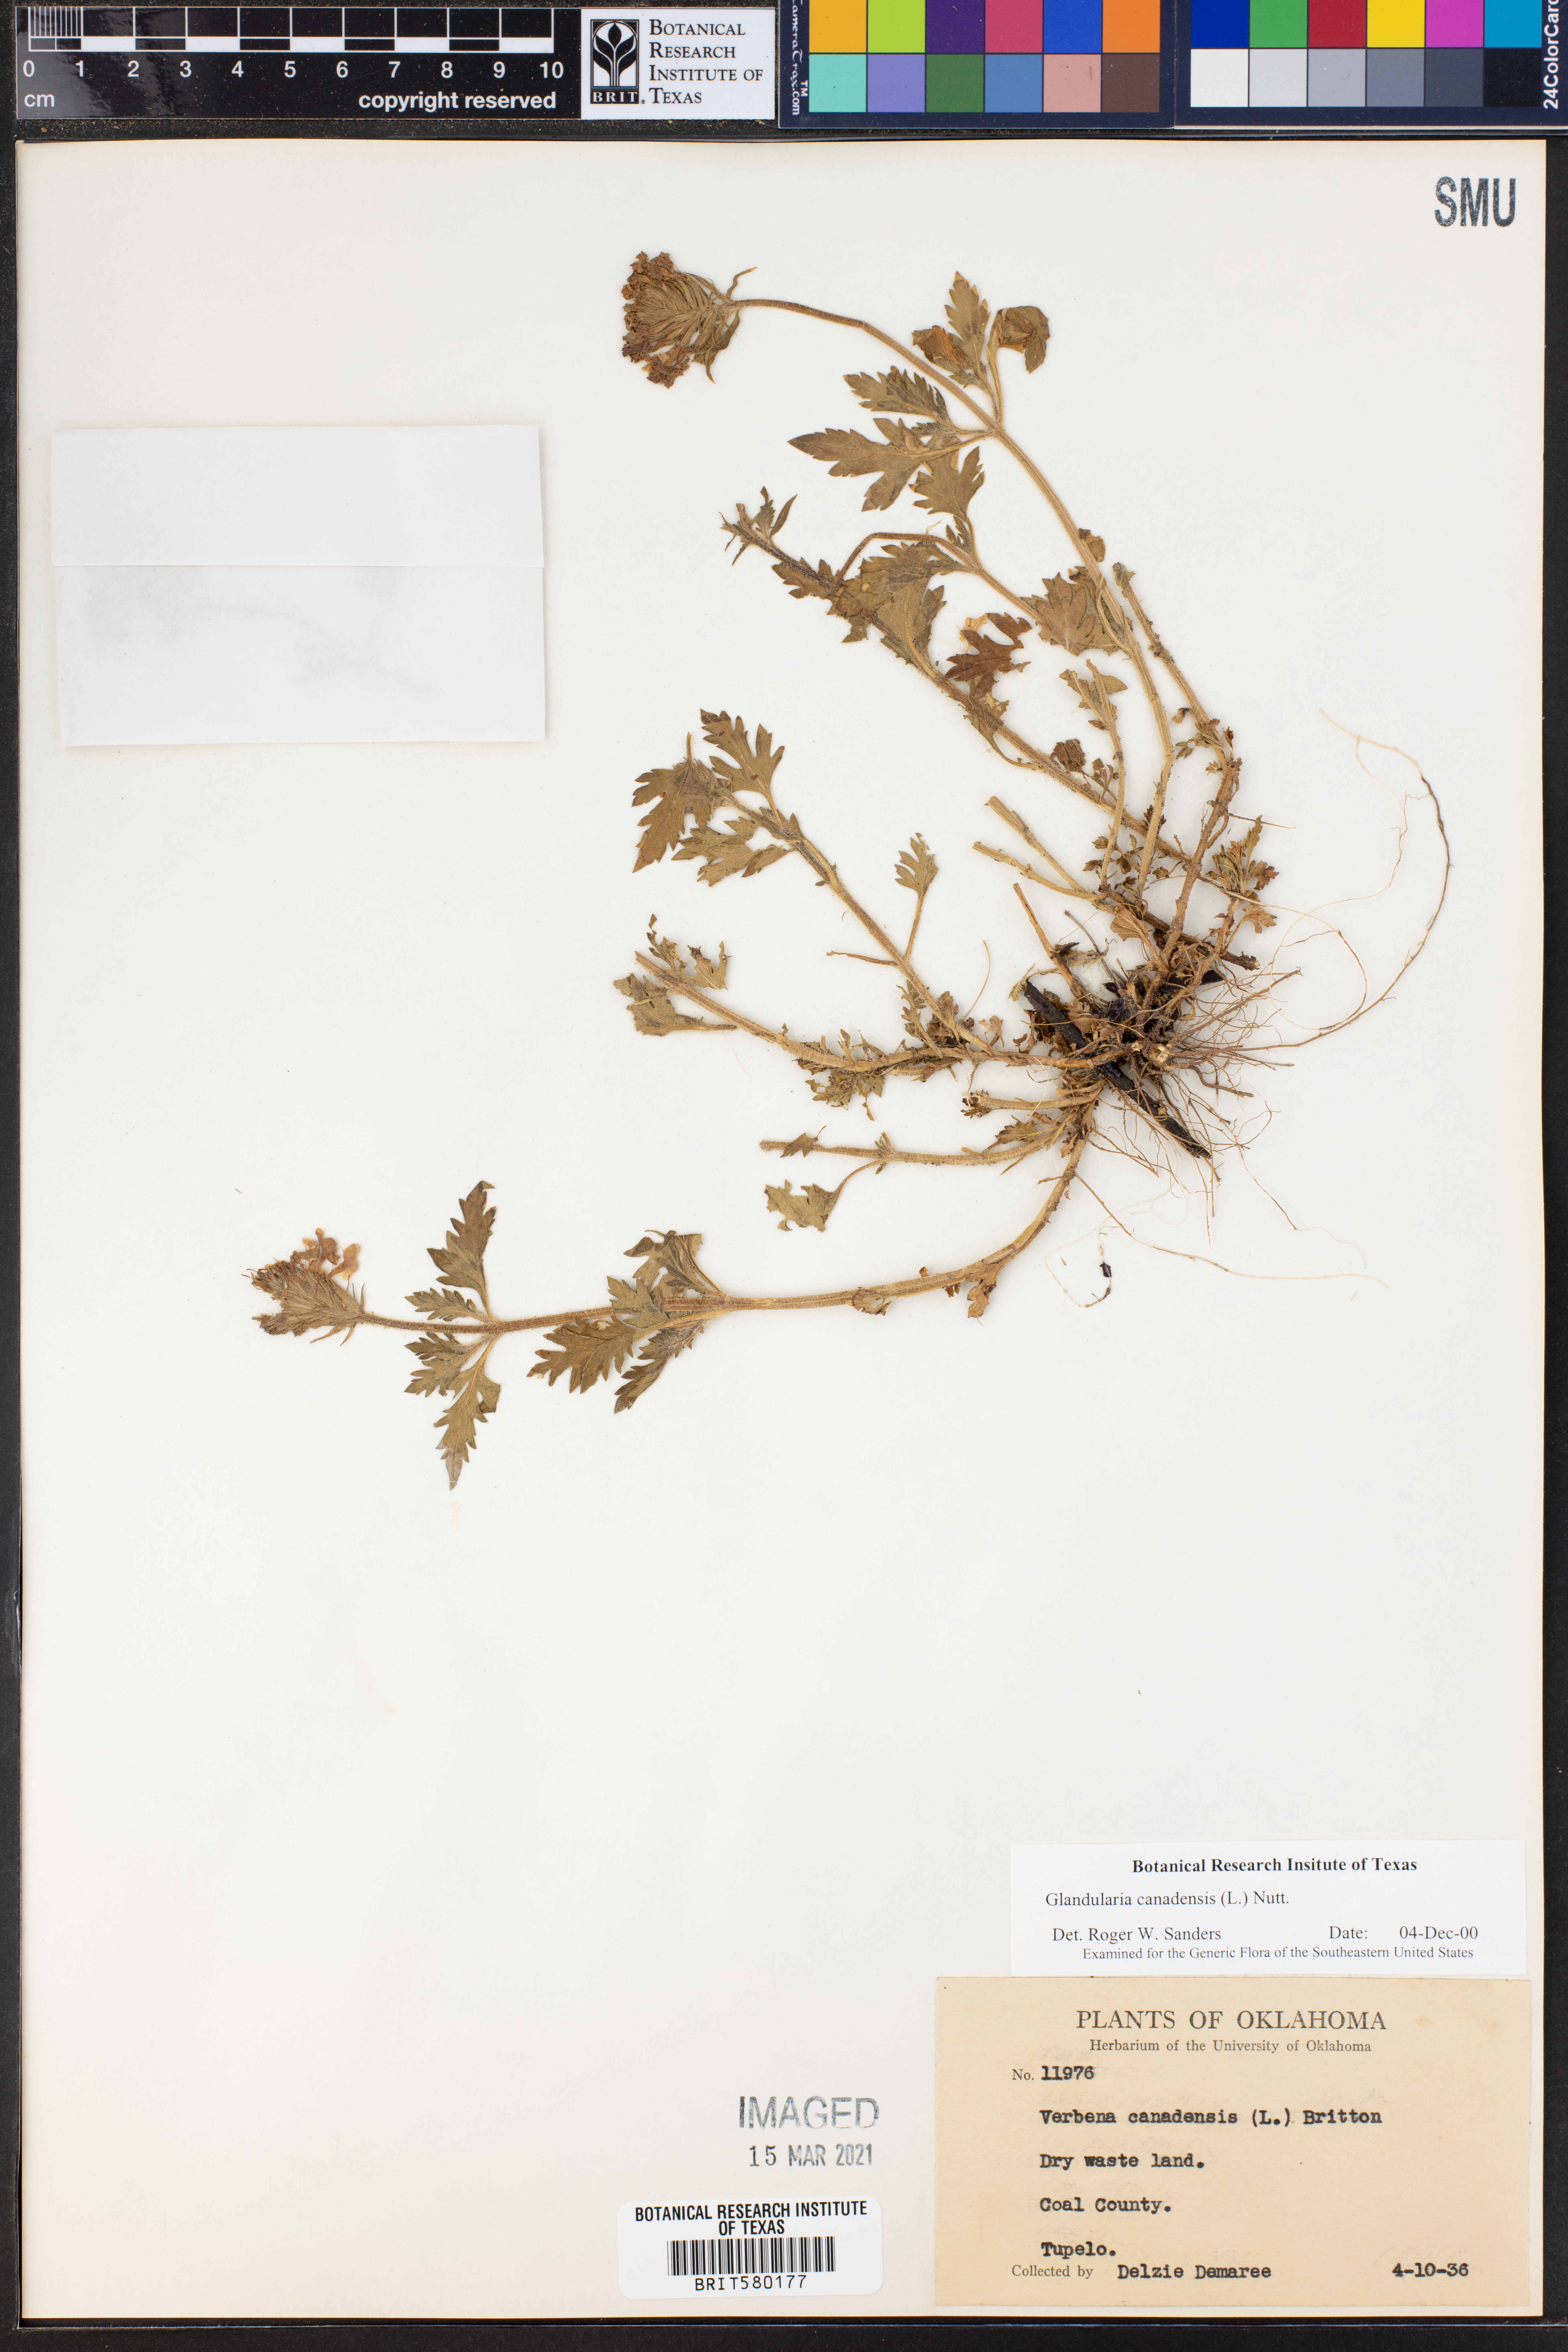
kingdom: Plantae
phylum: Tracheophyta
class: Magnoliopsida
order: Lamiales
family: Verbenaceae
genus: Verbena
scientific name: Verbena canadensis
